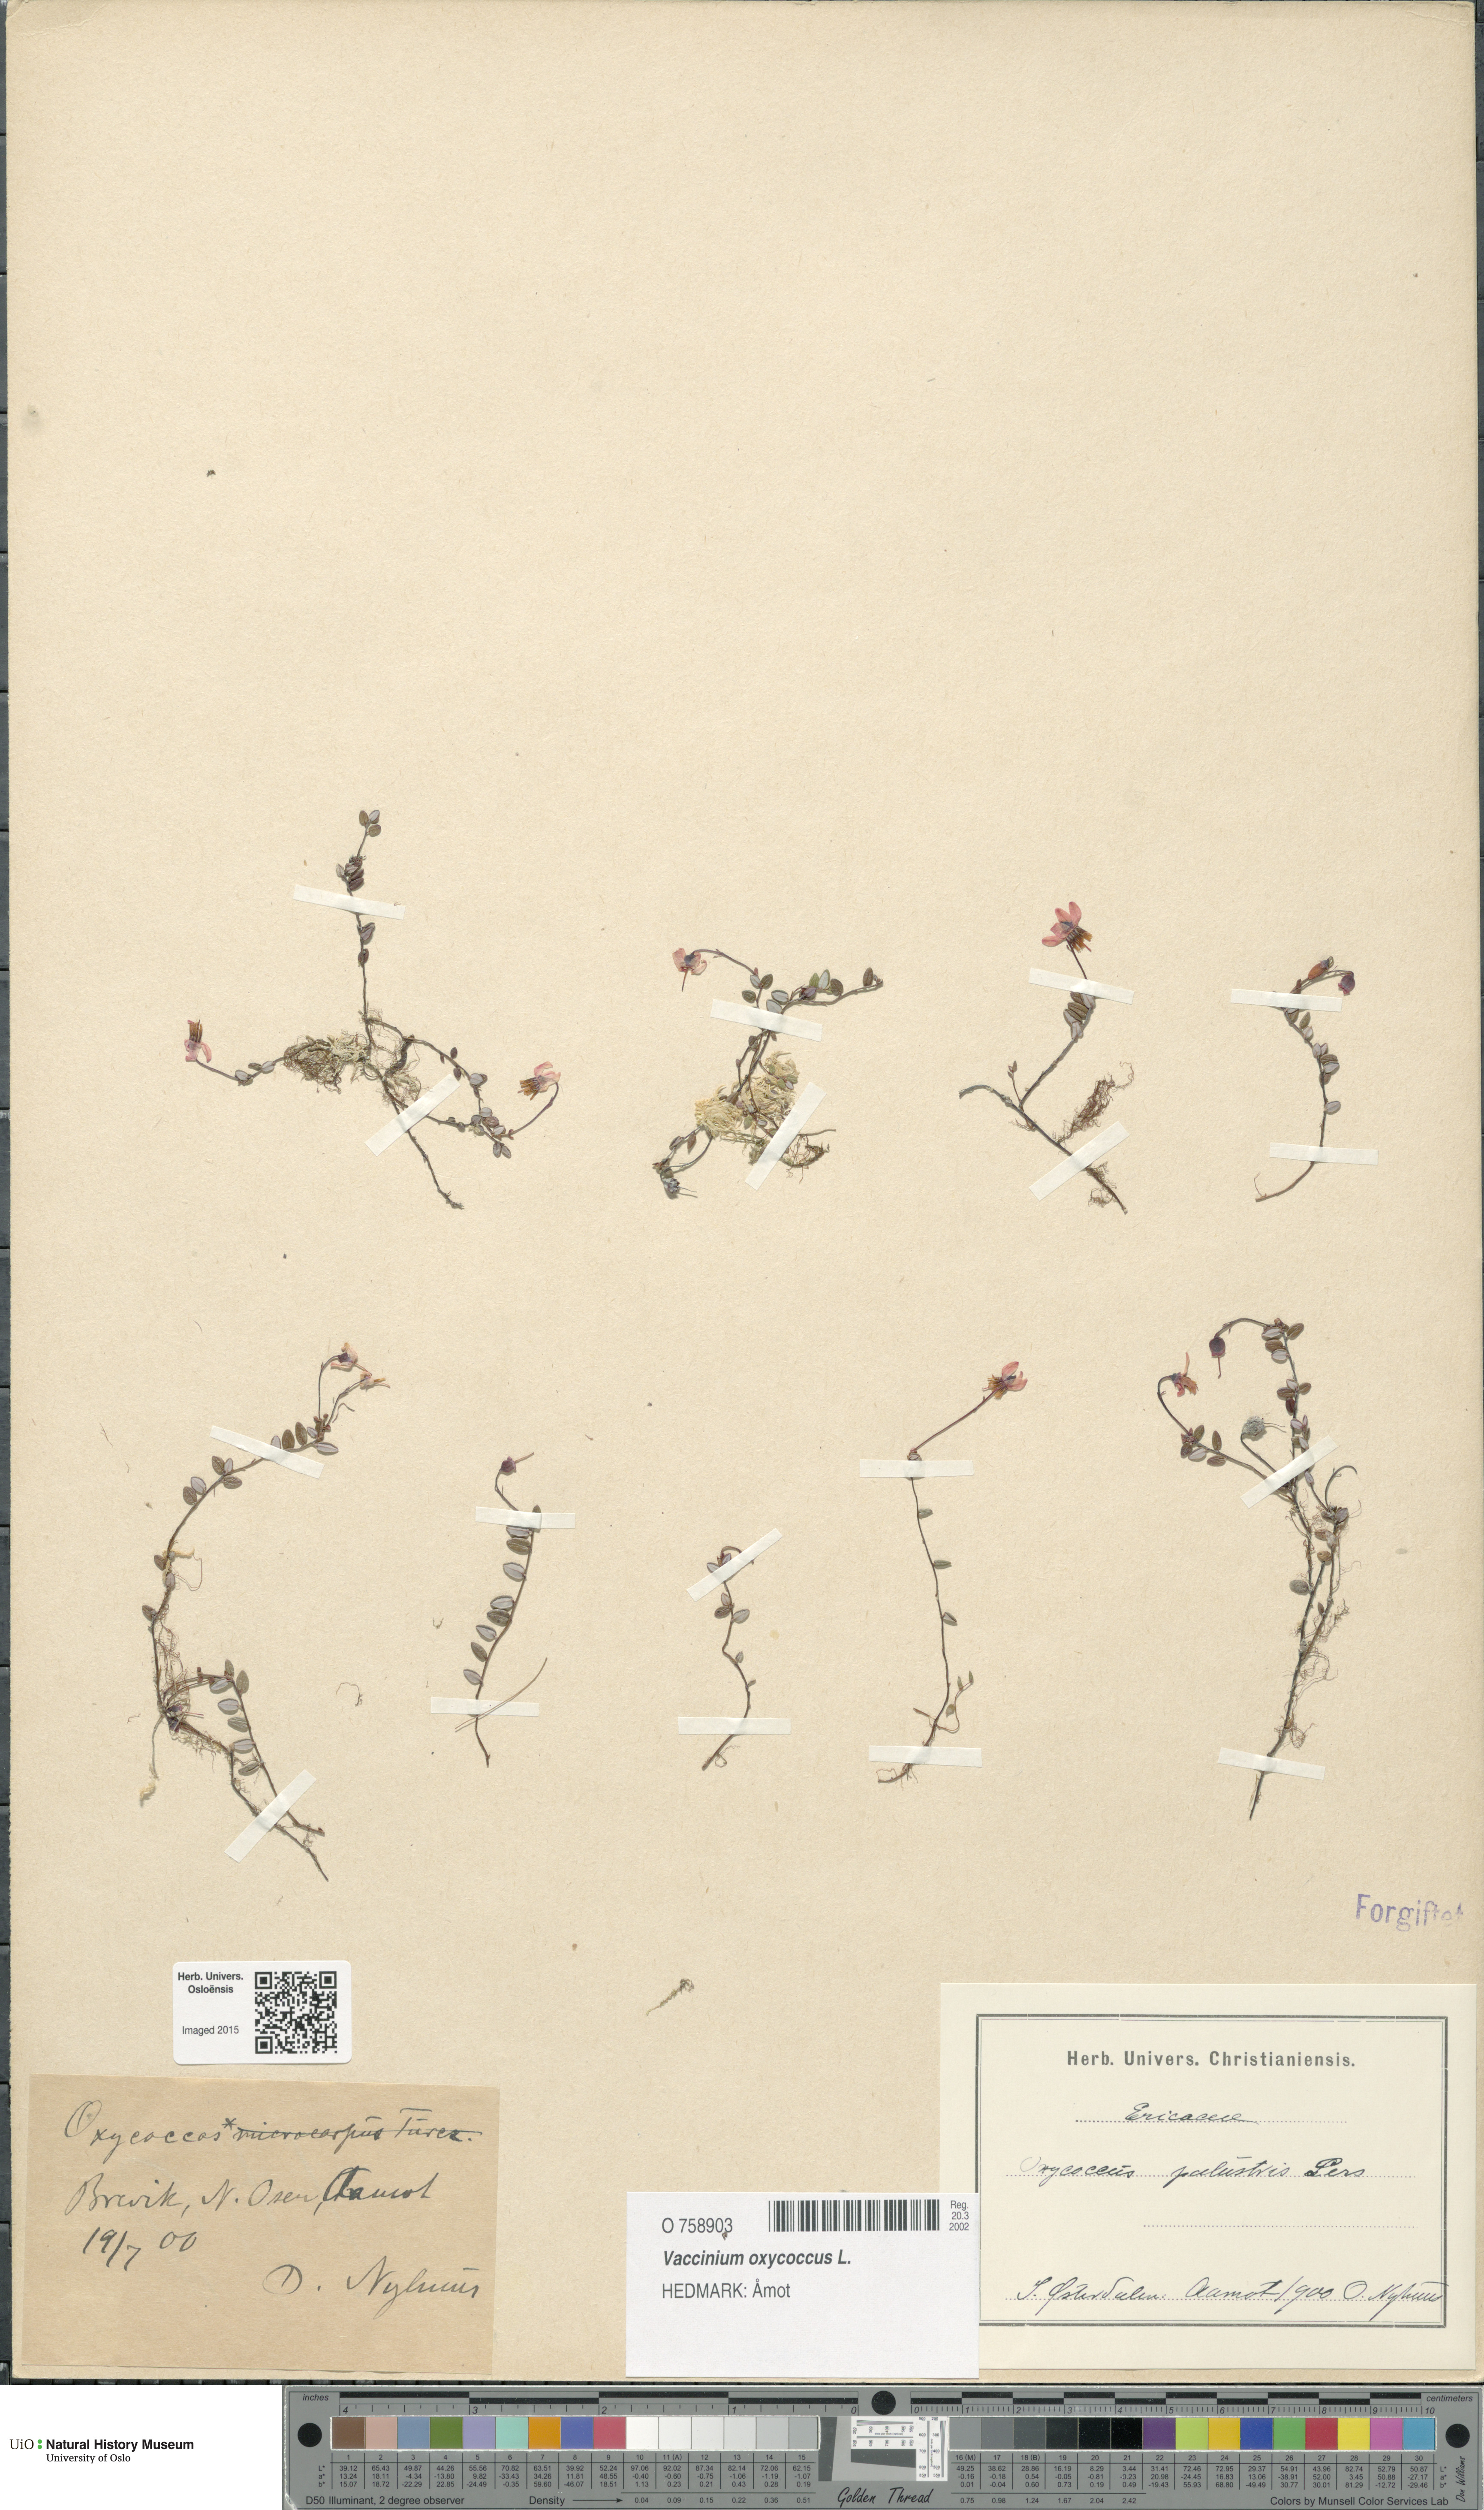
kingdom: Plantae
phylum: Tracheophyta
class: Magnoliopsida
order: Ericales
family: Ericaceae
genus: Vaccinium
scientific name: Vaccinium oxycoccos
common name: Cranberry
